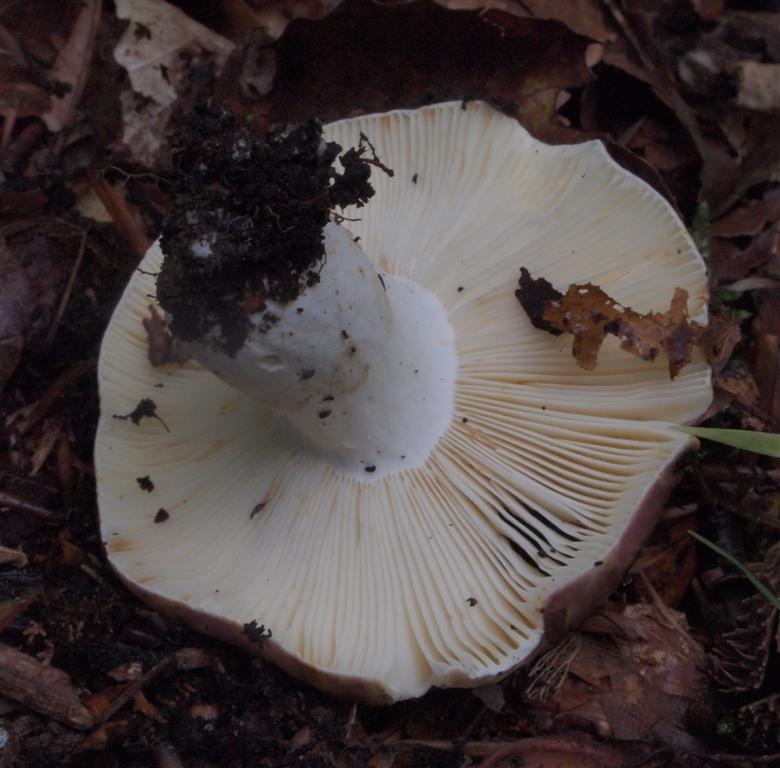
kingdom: Fungi
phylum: Basidiomycota
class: Agaricomycetes
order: Russulales
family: Russulaceae
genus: Russula
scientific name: Russula atropurpurea
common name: purpurbroget skørhat
